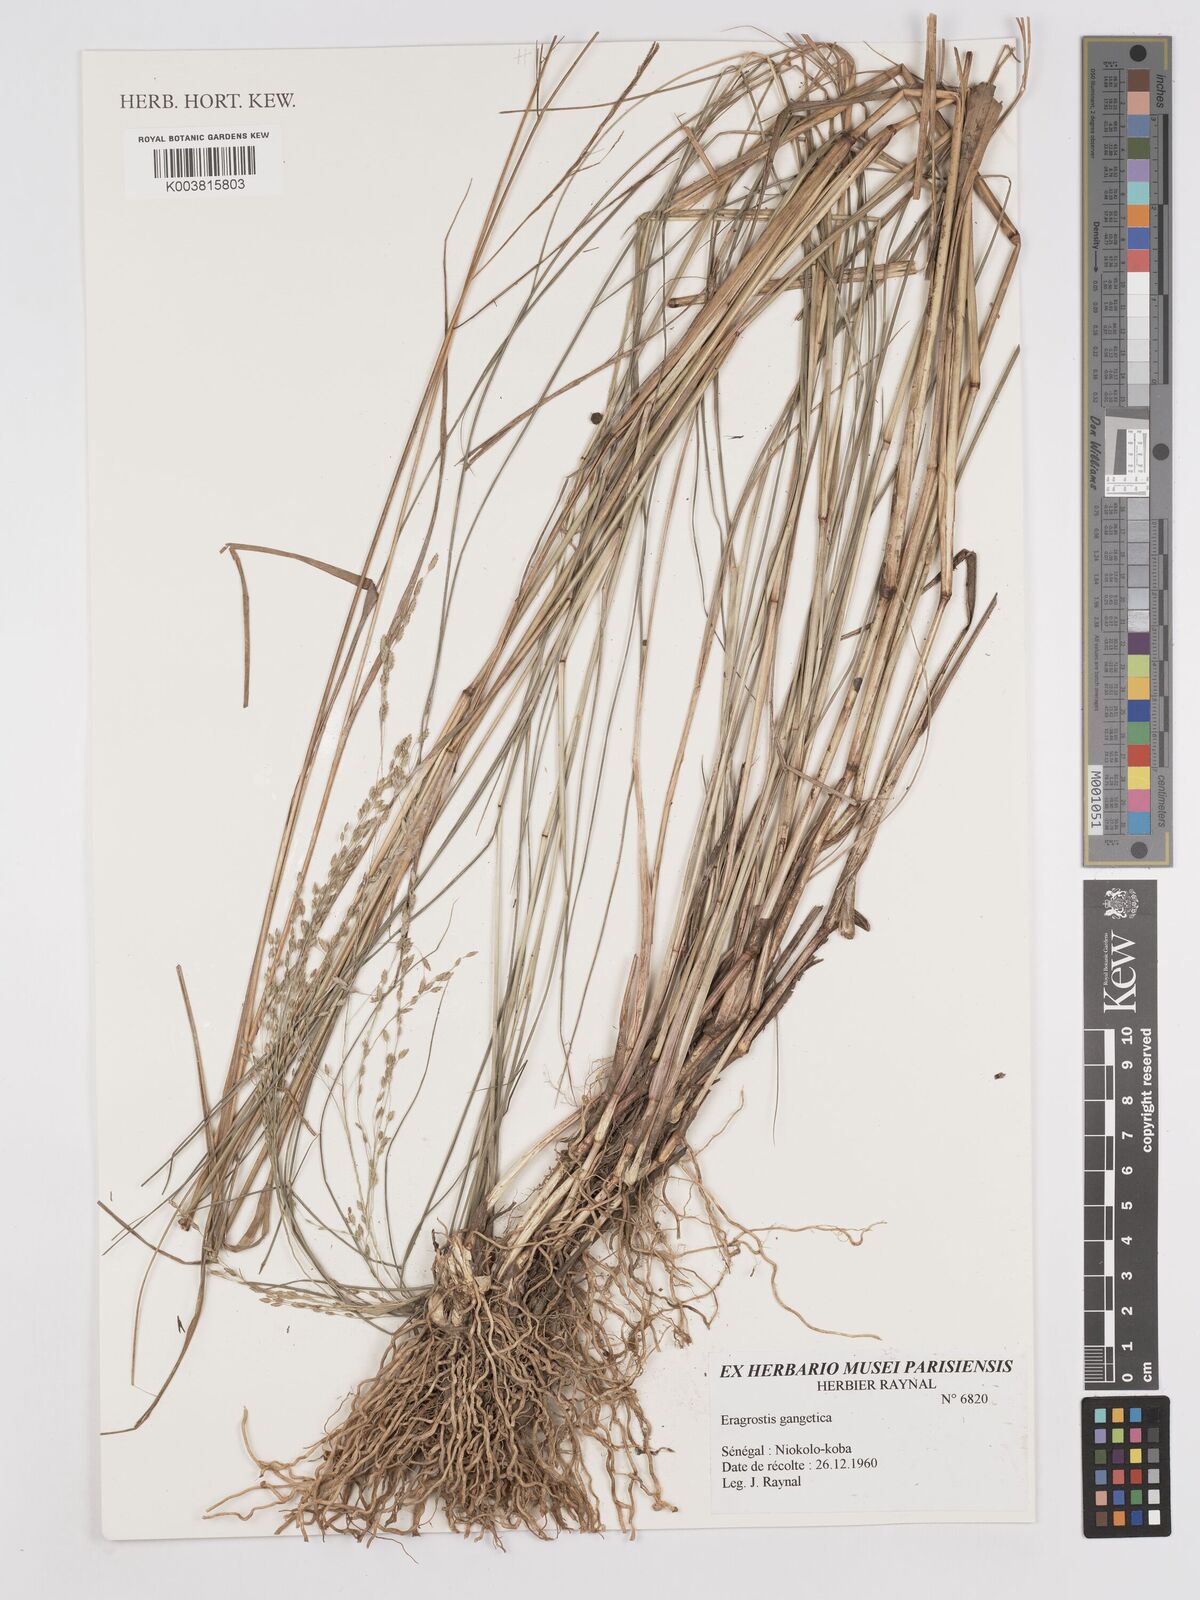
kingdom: Plantae
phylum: Tracheophyta
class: Liliopsida
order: Poales
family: Poaceae
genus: Eragrostis
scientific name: Eragrostis gangetica
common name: Slimflower lovegrass
